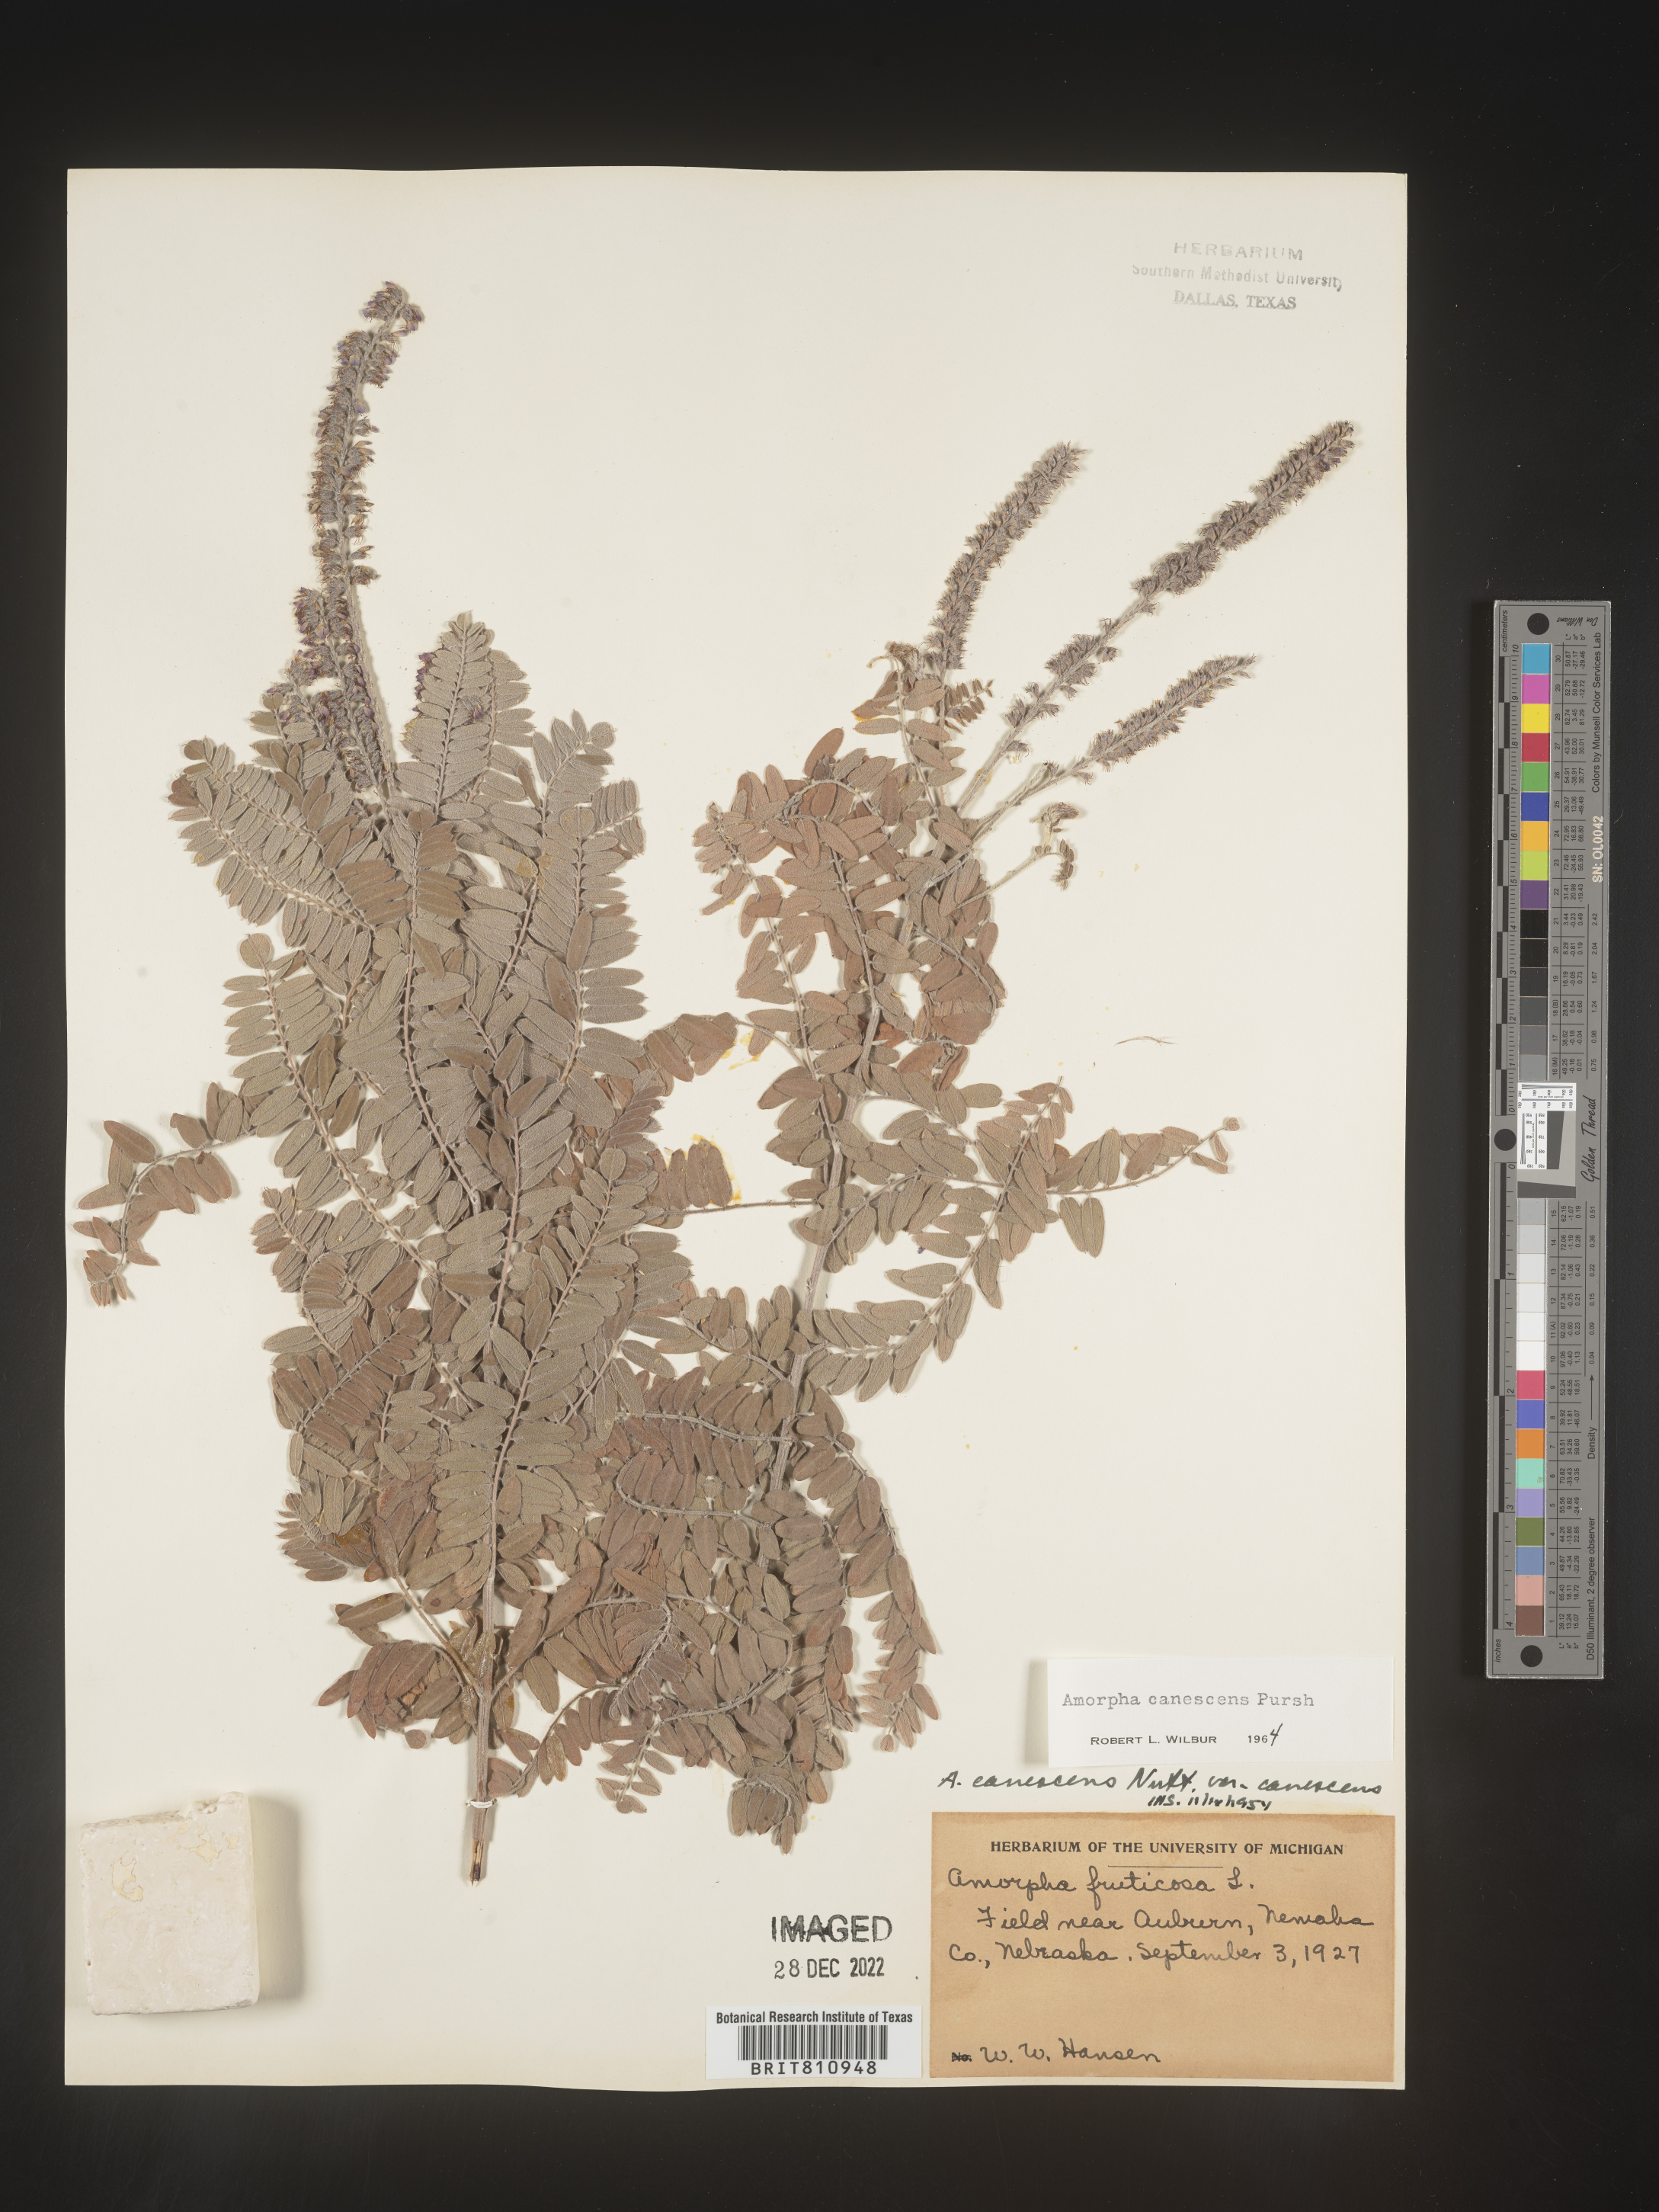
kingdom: Plantae
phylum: Tracheophyta
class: Magnoliopsida
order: Fabales
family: Fabaceae
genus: Amorpha
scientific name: Amorpha canescens
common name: Leadplant
